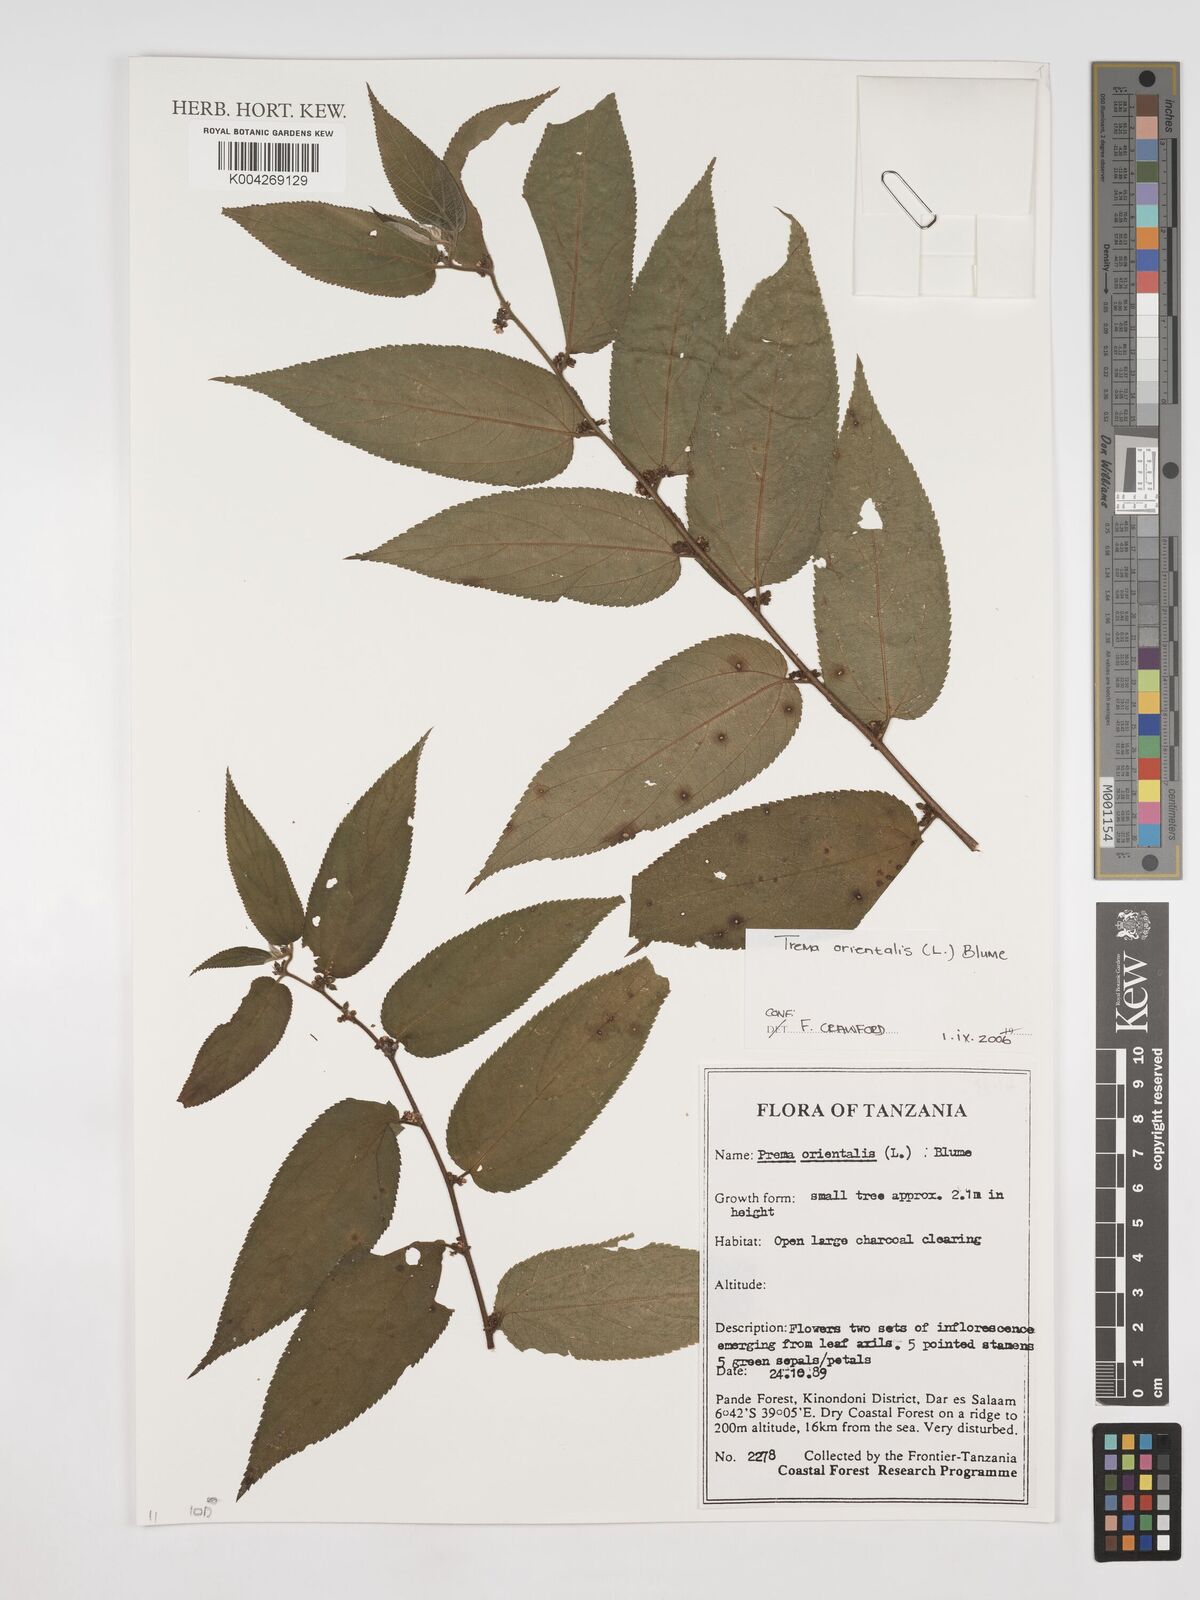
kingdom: Plantae
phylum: Tracheophyta
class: Magnoliopsida
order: Rosales
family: Cannabaceae
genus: Trema
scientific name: Trema orientale
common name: Indian charcoal tree
